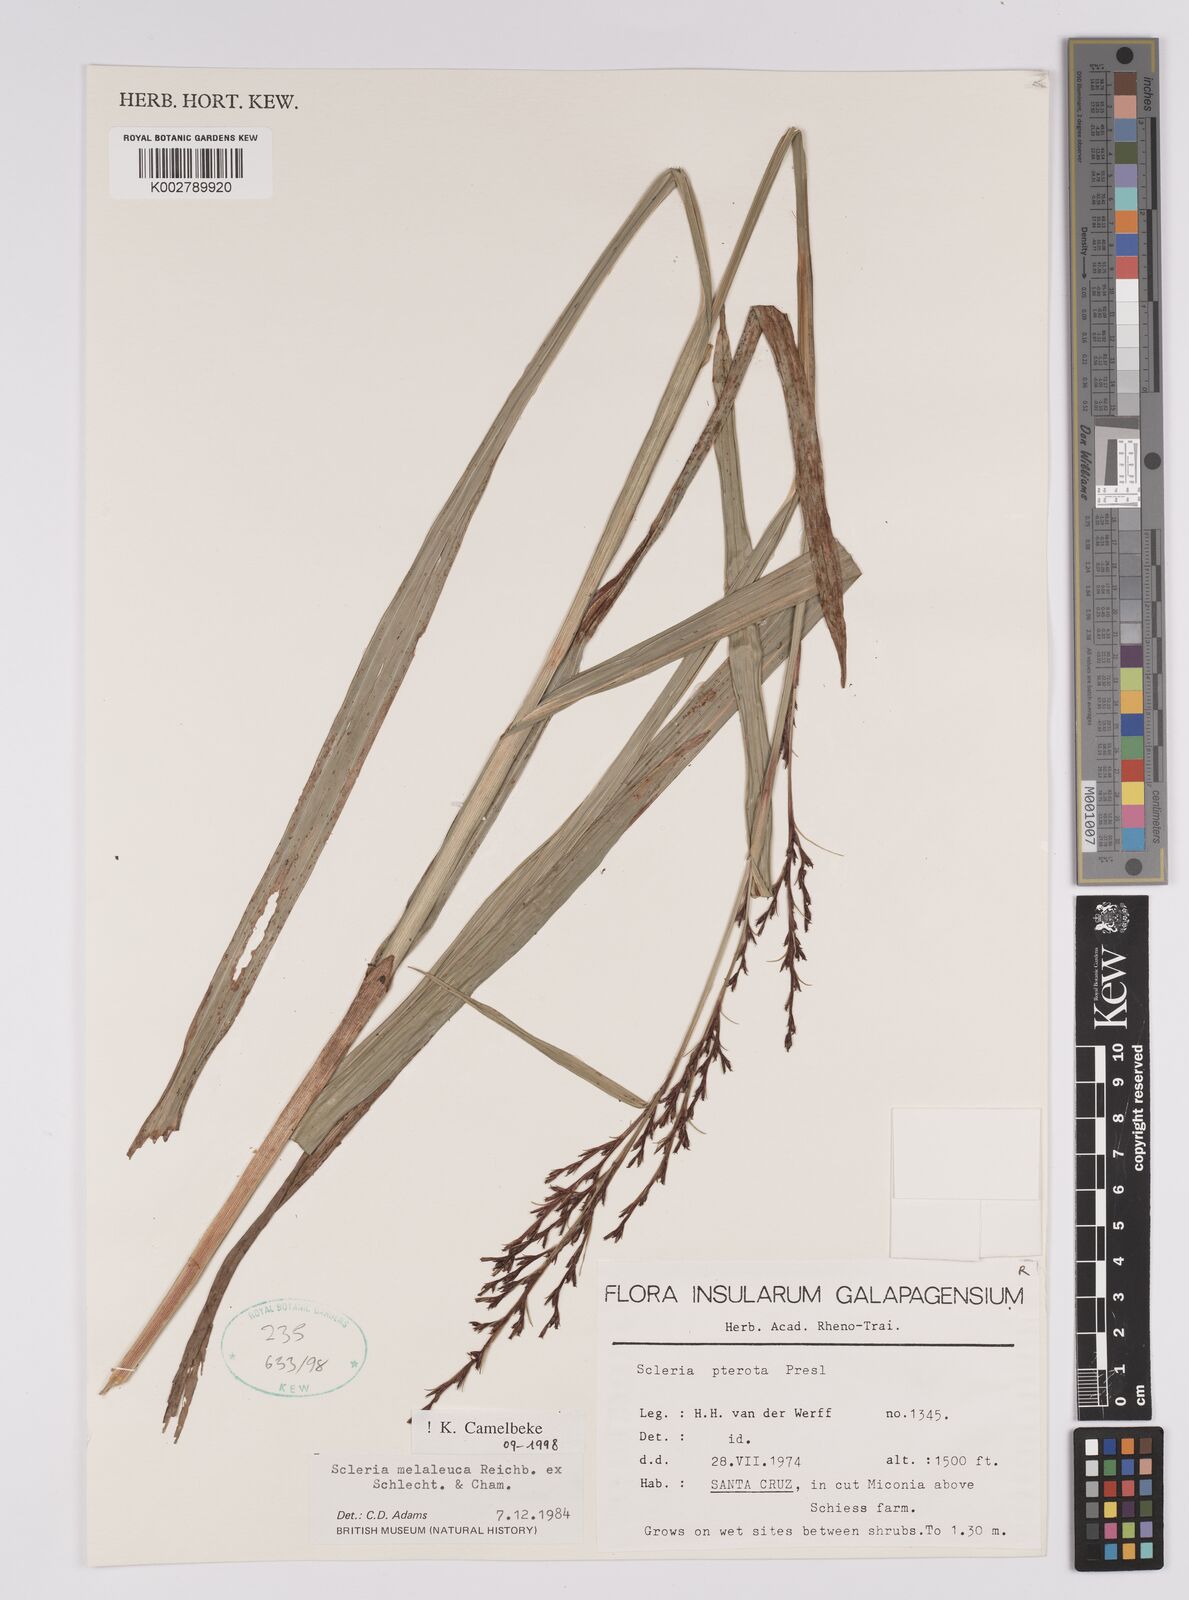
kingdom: Plantae
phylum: Tracheophyta
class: Liliopsida
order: Poales
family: Cyperaceae
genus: Scleria
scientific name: Scleria gaertneri
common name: Cortadera blanca
